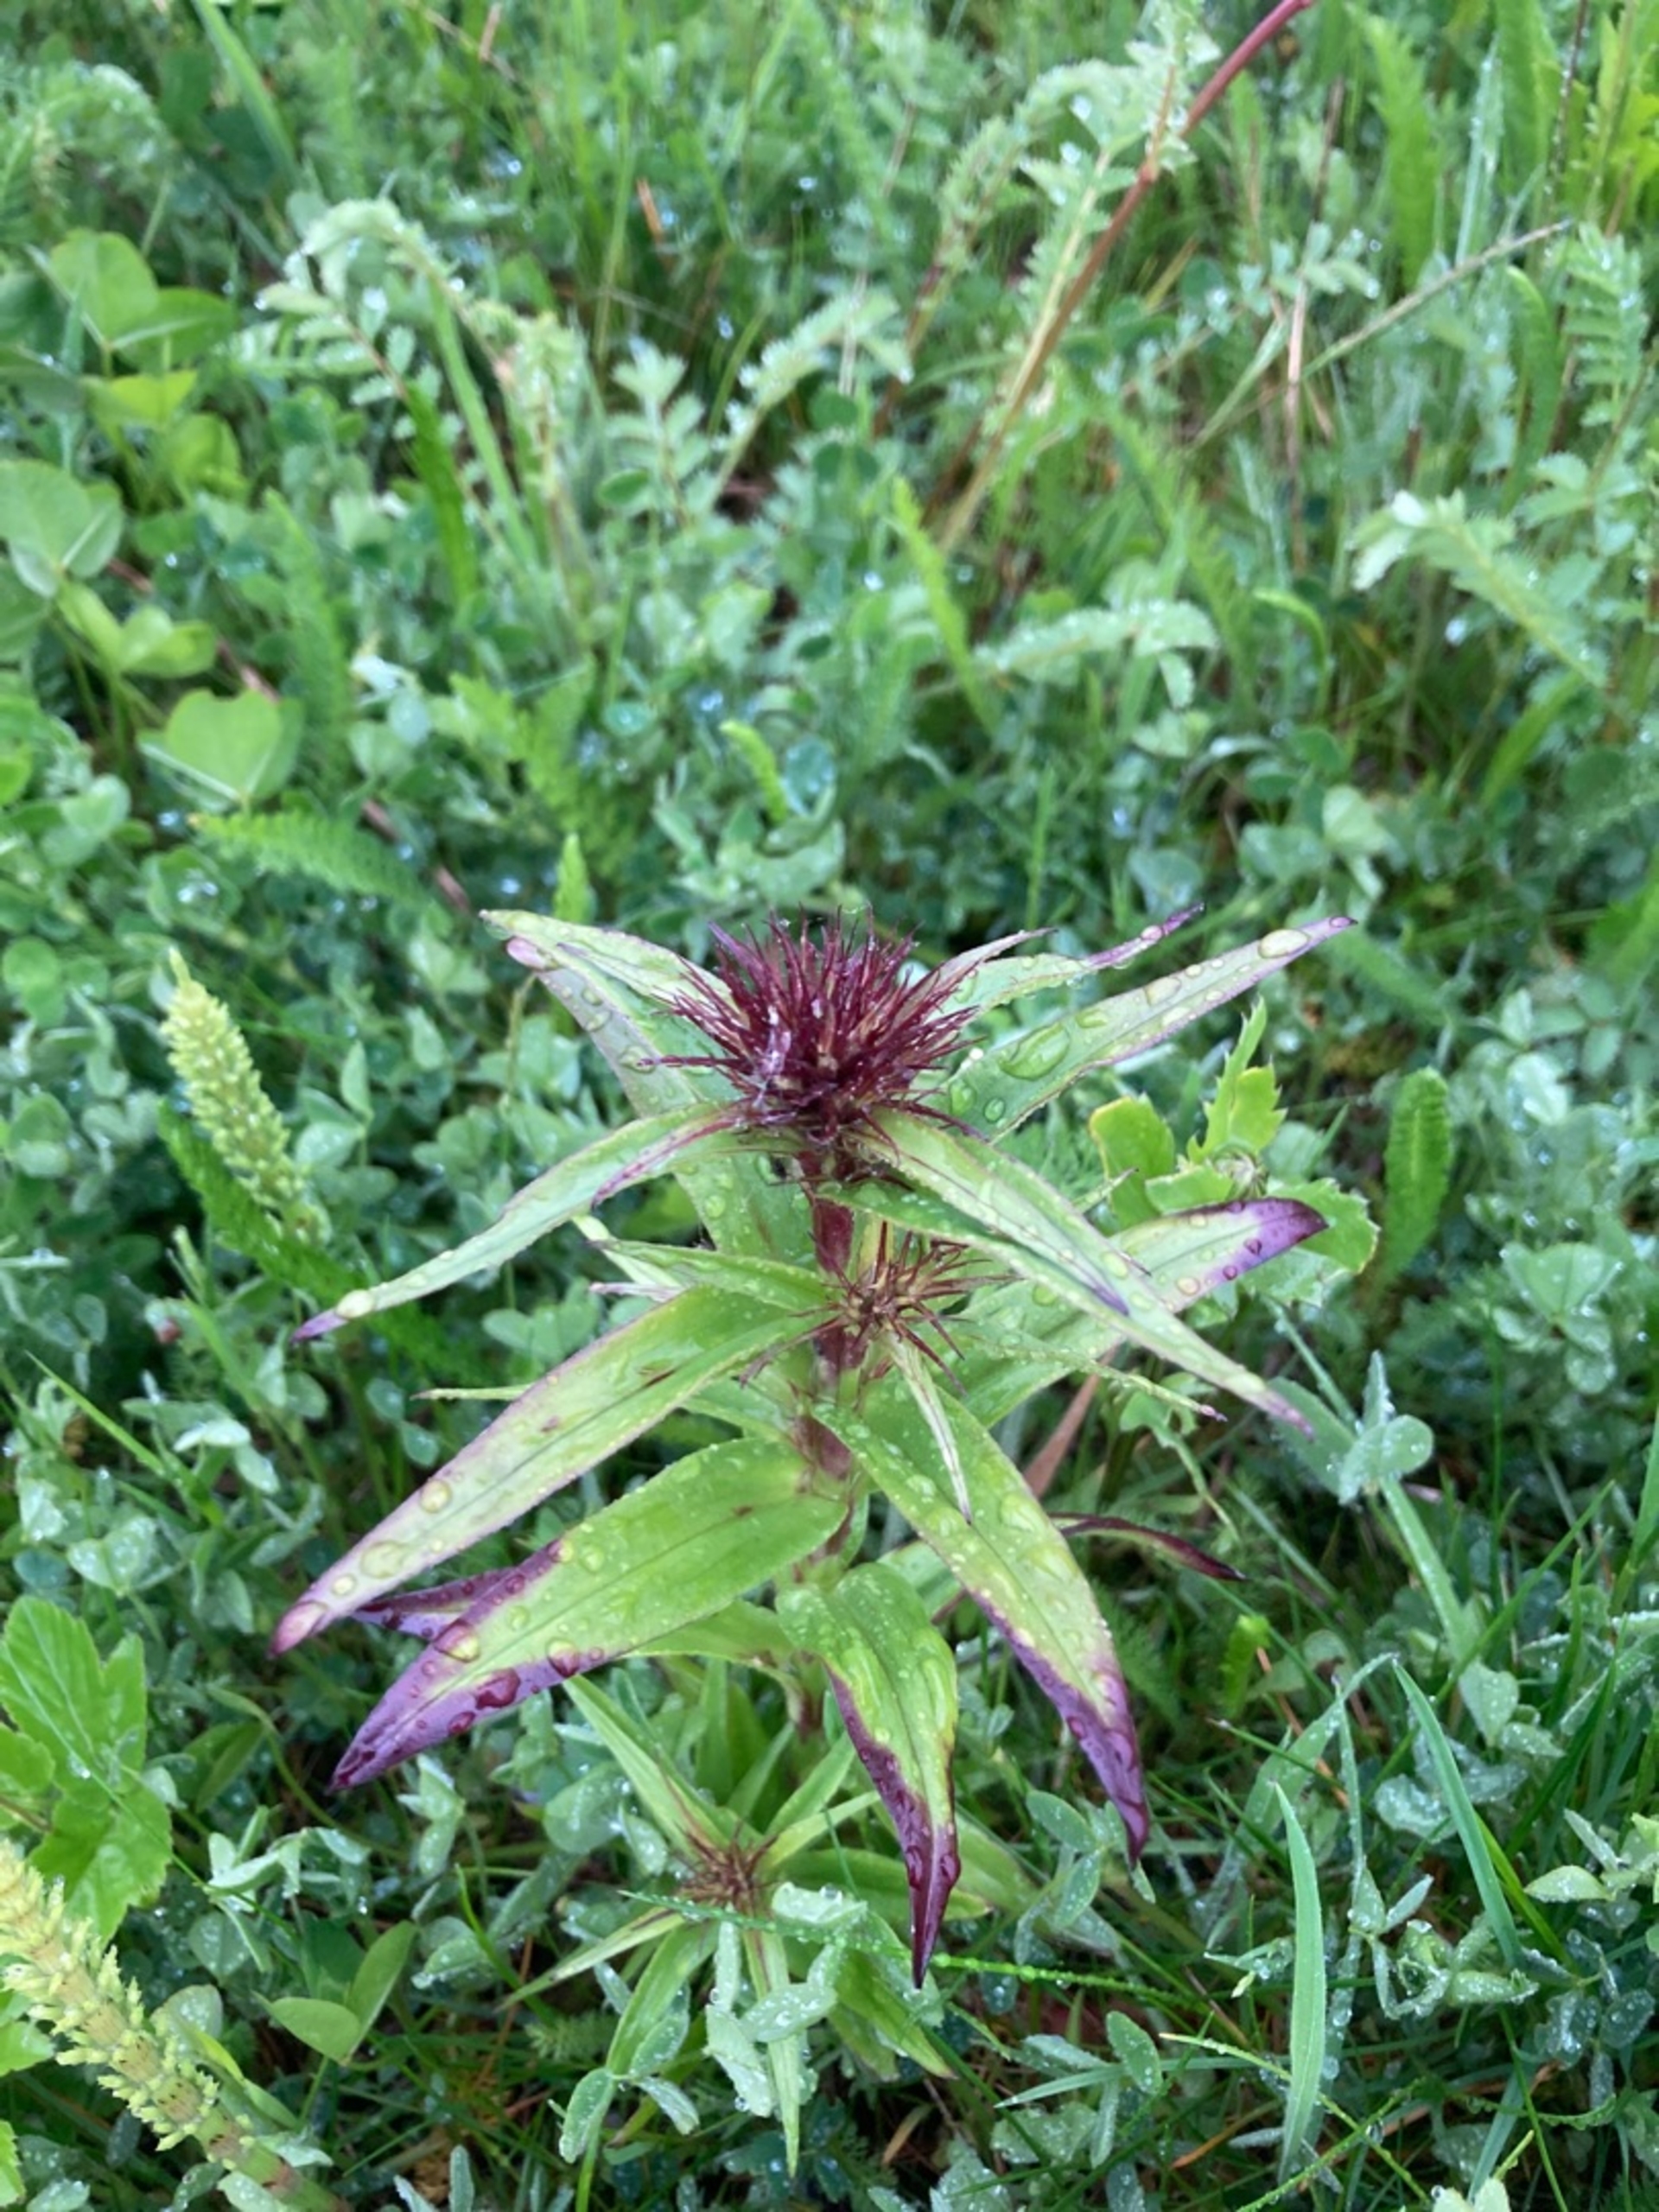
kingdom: Plantae
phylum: Tracheophyta
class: Magnoliopsida
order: Caryophyllales
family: Caryophyllaceae
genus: Dianthus
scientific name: Dianthus barbatus
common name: Studenter-nellike
